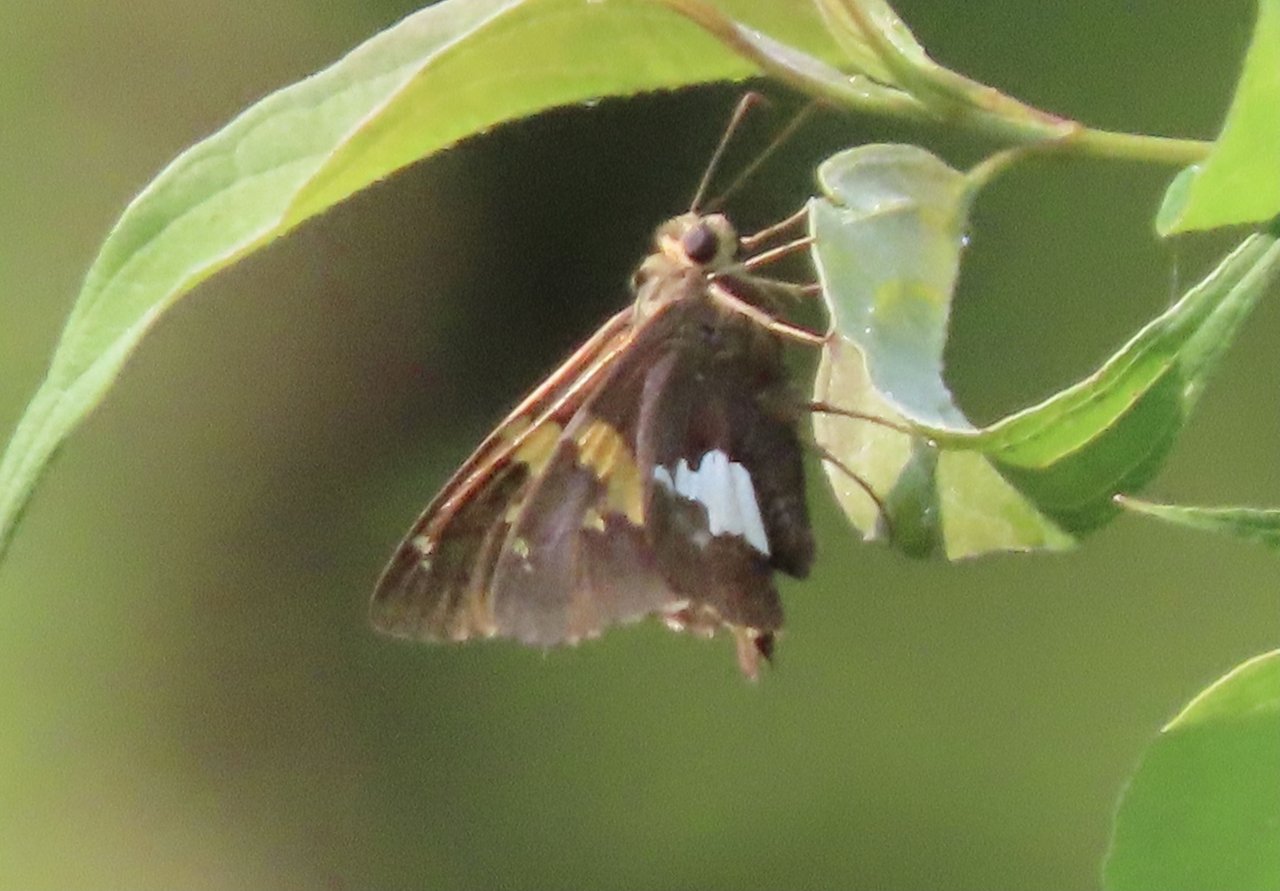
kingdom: Animalia
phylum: Arthropoda
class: Insecta
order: Lepidoptera
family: Hesperiidae
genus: Epargyreus
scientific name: Epargyreus clarus
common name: Silver-spotted Skipper
